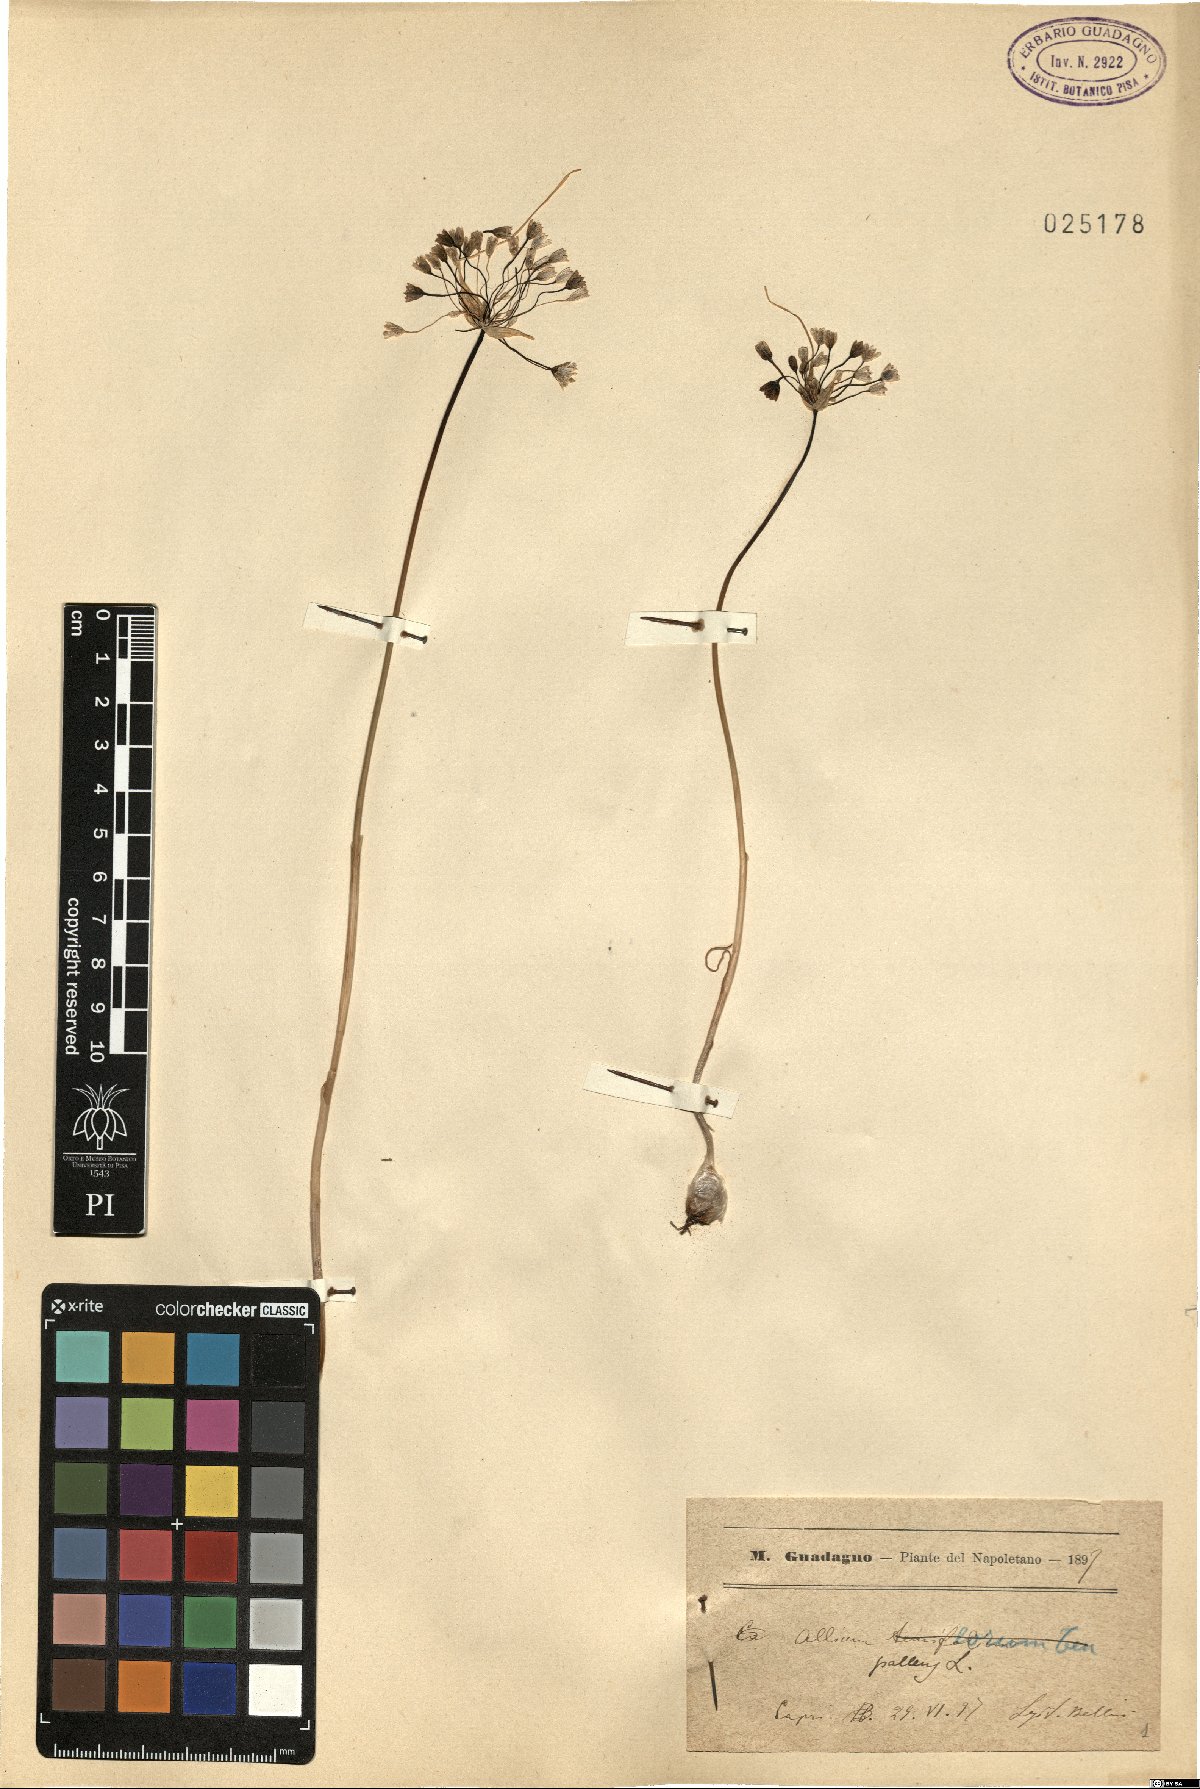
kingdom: Plantae
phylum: Tracheophyta
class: Liliopsida
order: Asparagales
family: Amaryllidaceae
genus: Allium
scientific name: Allium pallens
